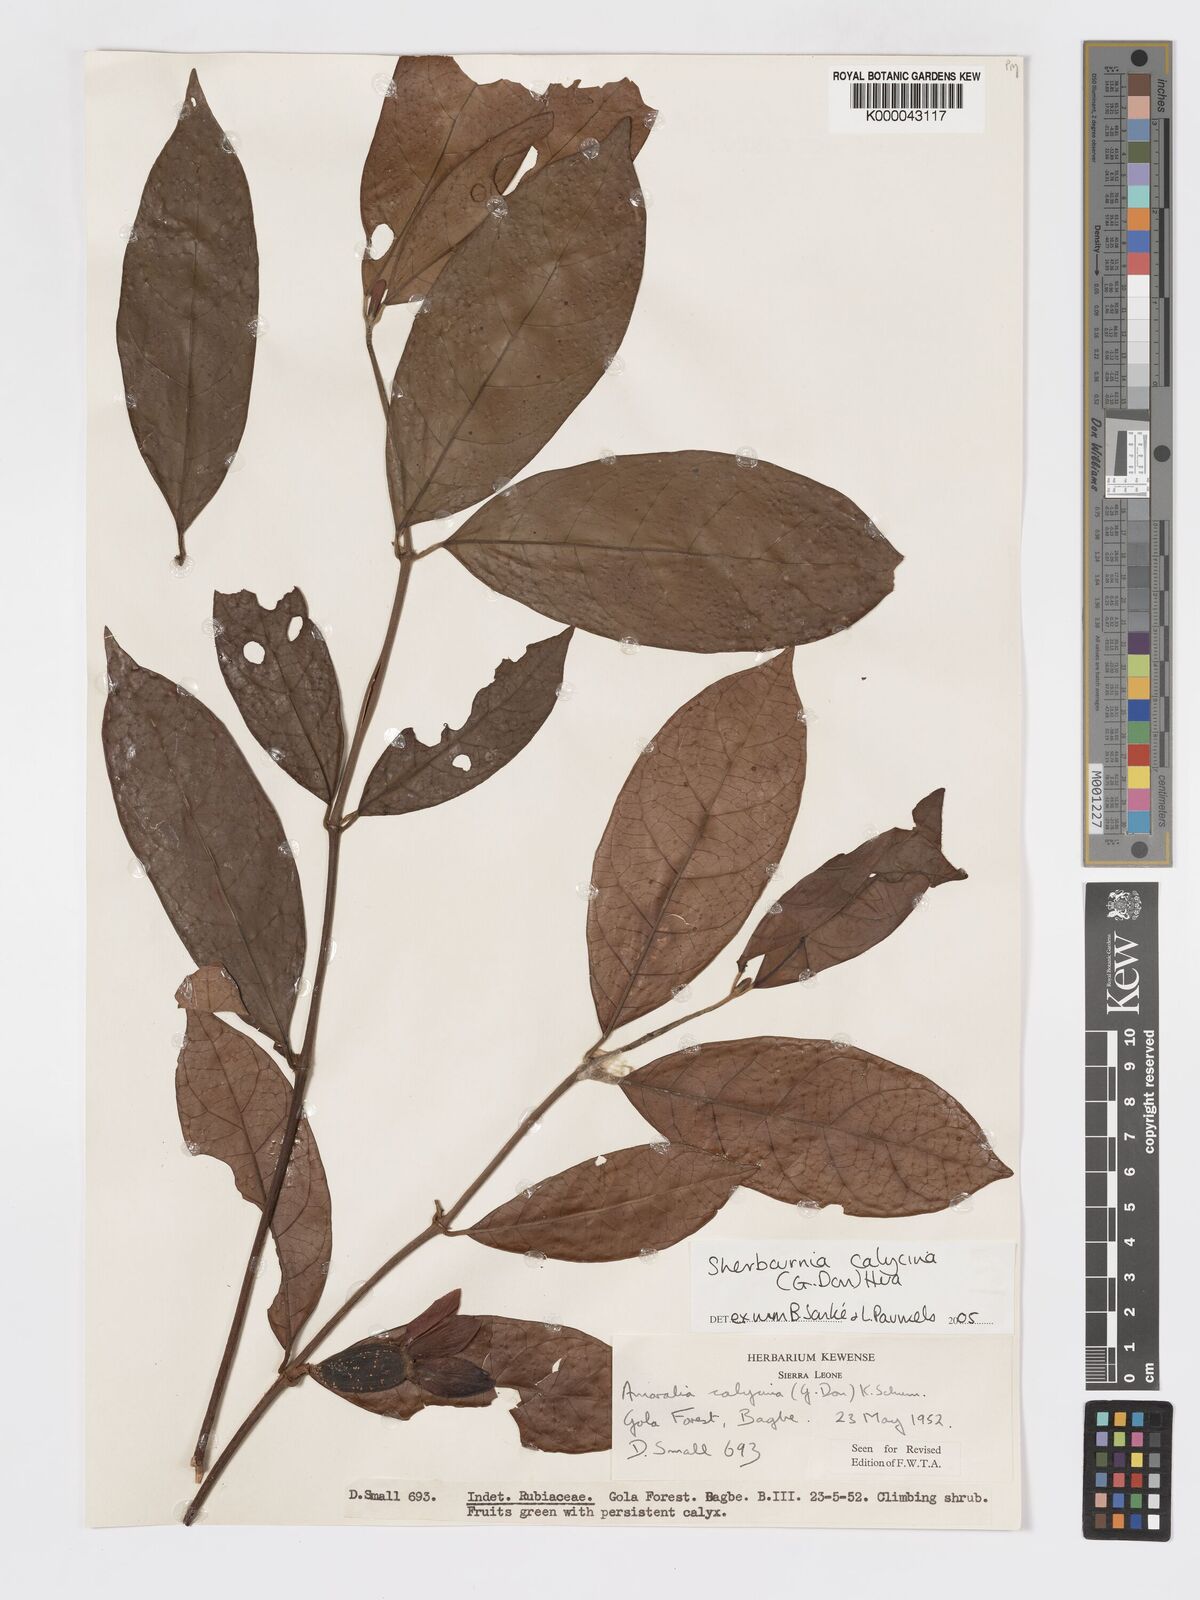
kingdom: Plantae
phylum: Tracheophyta
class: Magnoliopsida
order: Gentianales
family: Rubiaceae
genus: Sherbournia
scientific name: Sherbournia calycina
